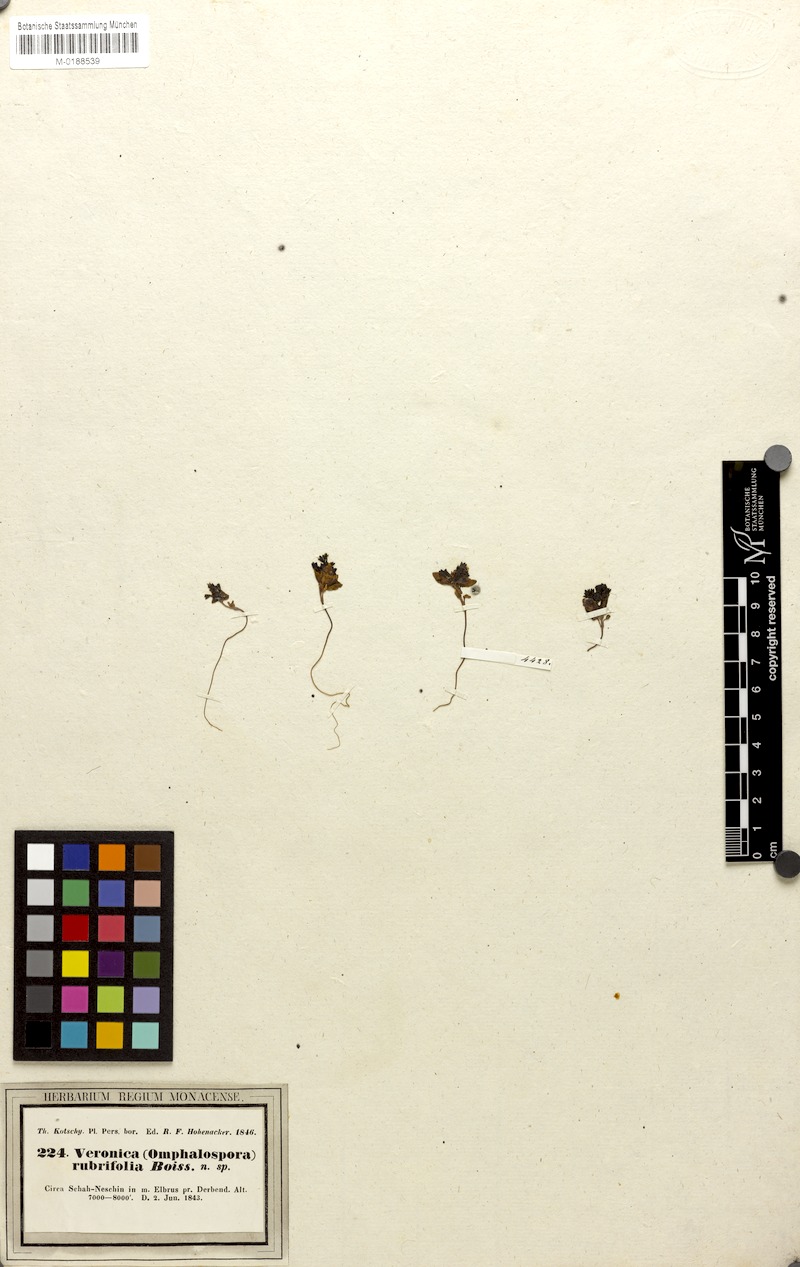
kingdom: Plantae
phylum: Tracheophyta
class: Magnoliopsida
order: Lamiales
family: Plantaginaceae
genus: Veronica
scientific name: Veronica rubrifolia
